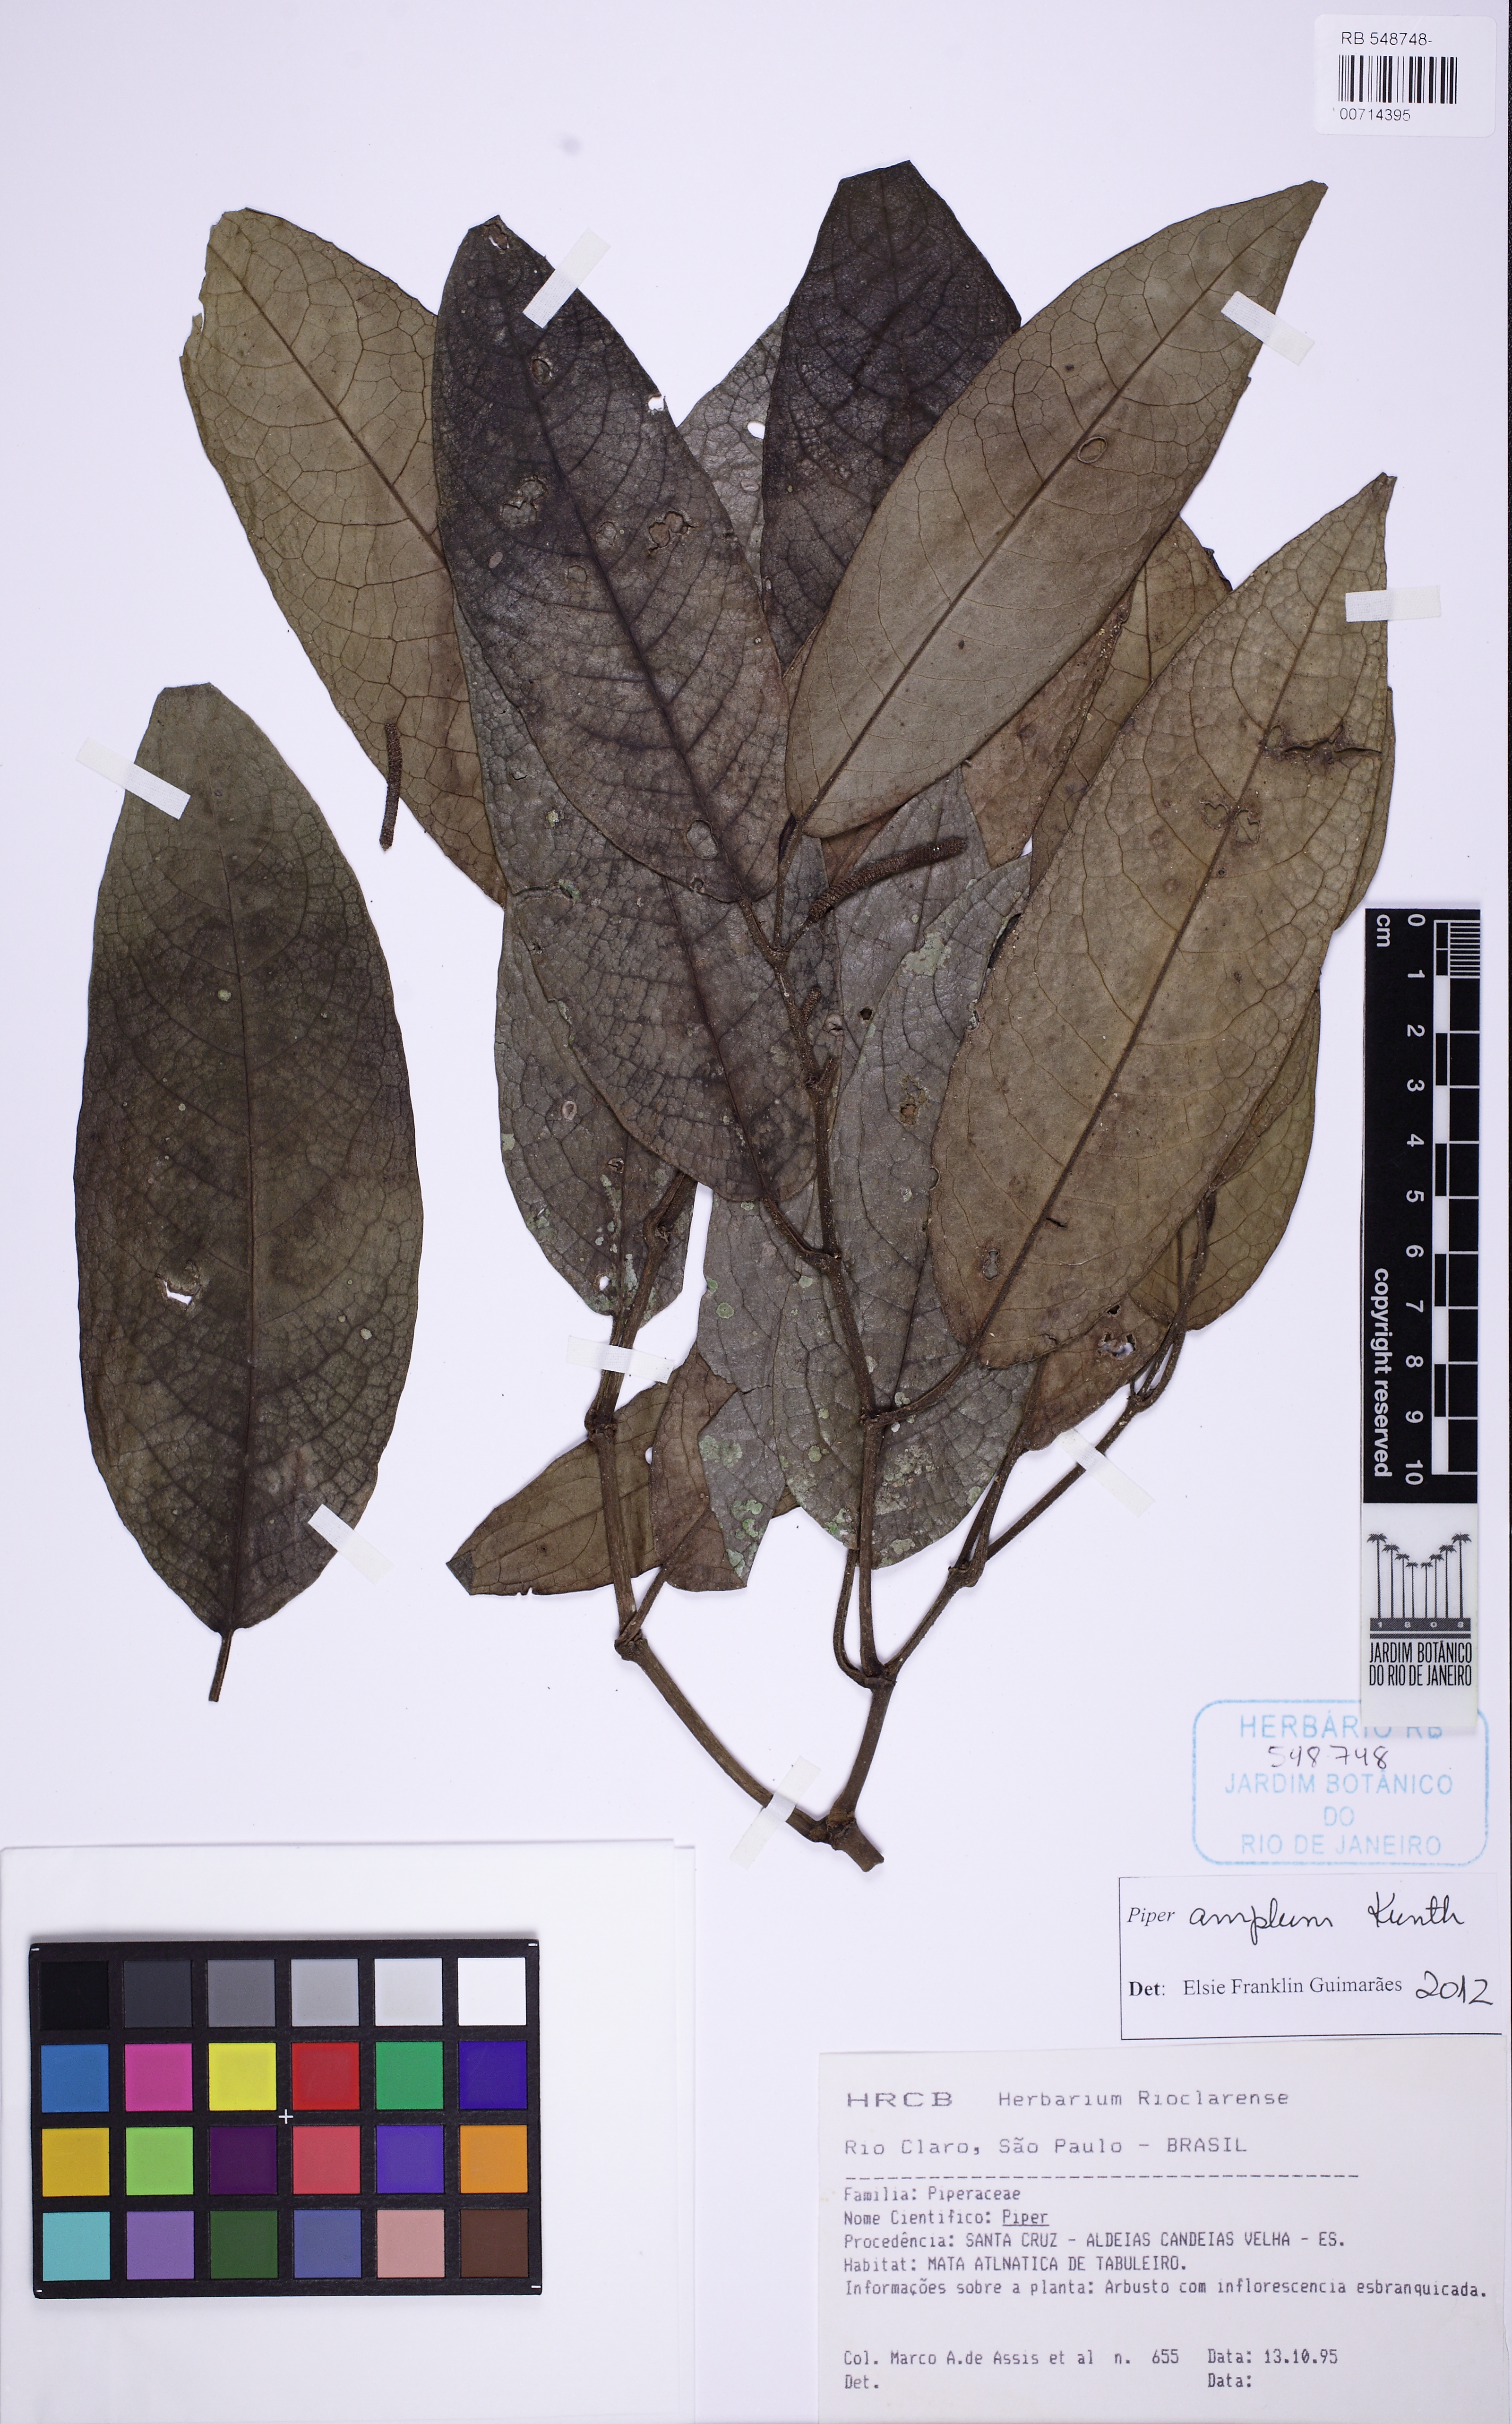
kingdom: Plantae
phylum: Tracheophyta
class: Magnoliopsida
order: Piperales
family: Piperaceae
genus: Piper
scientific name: Piper fluminense
